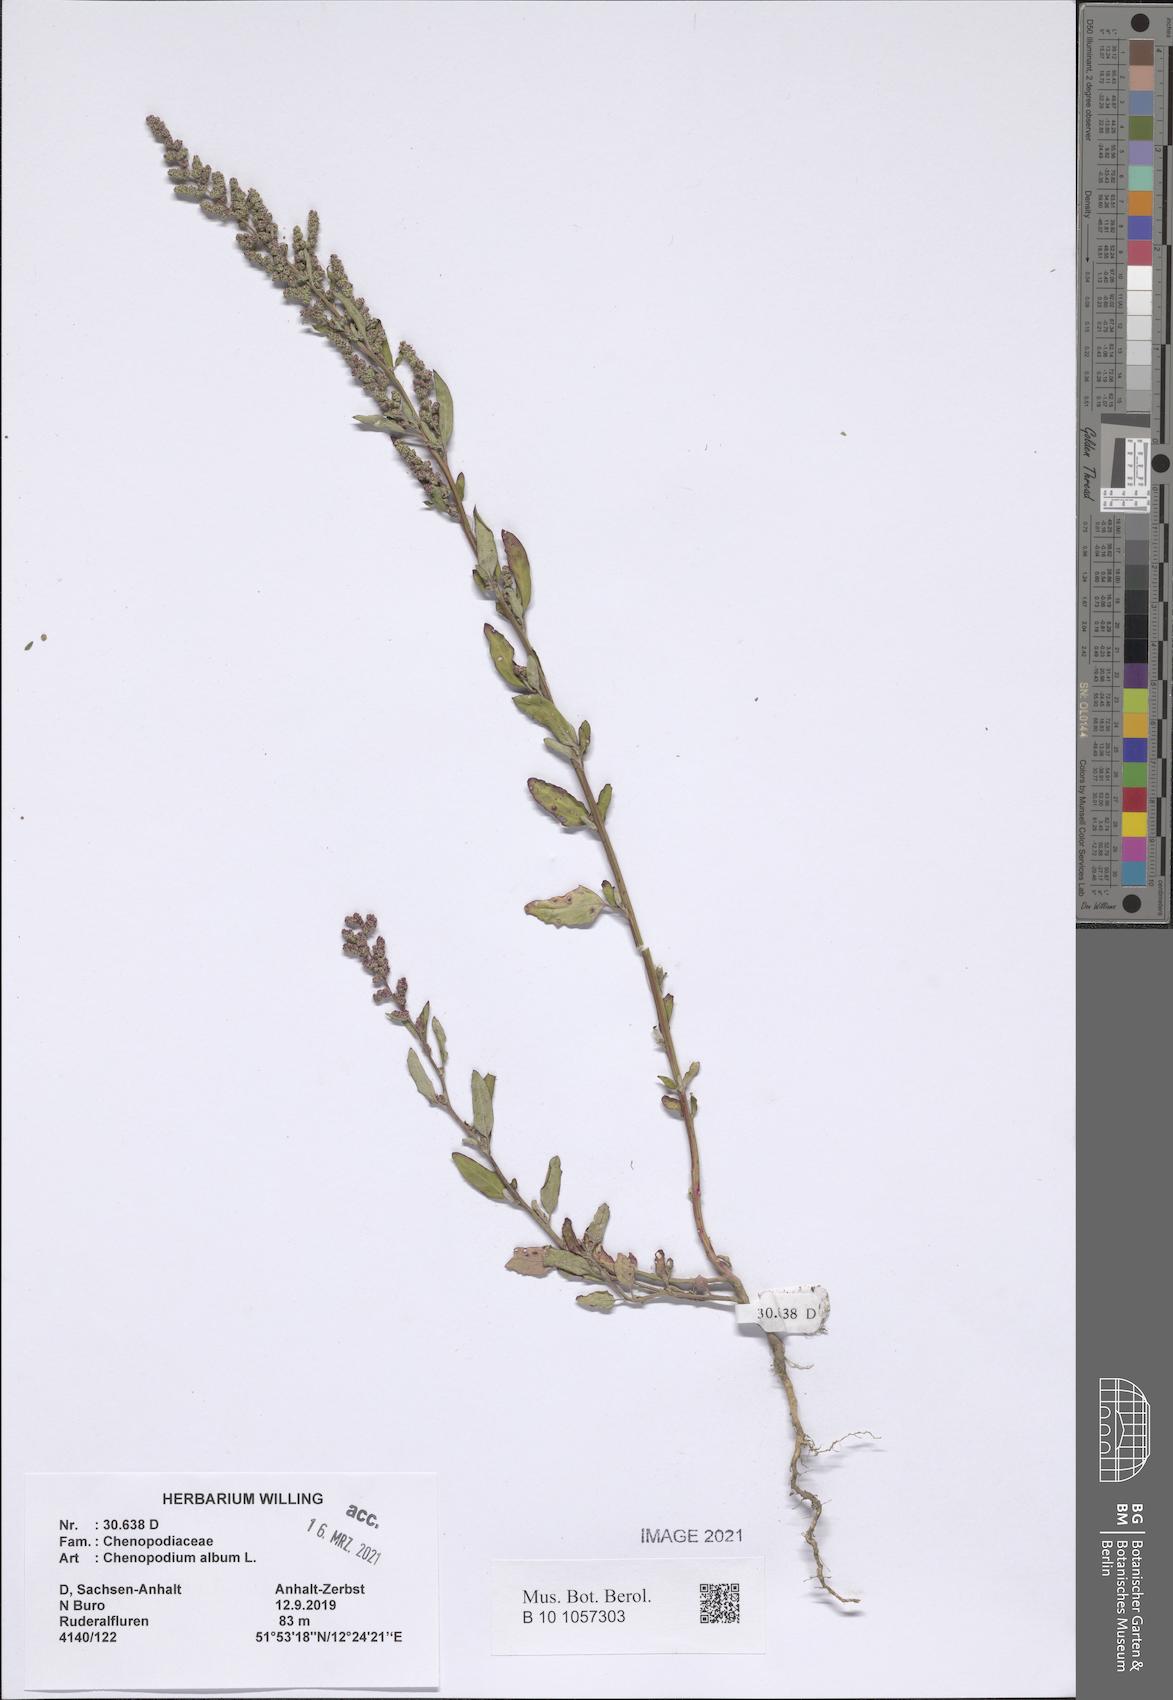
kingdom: Plantae
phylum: Tracheophyta
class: Magnoliopsida
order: Caryophyllales
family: Amaranthaceae
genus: Chenopodium
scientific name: Chenopodium album
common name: Fat-hen
